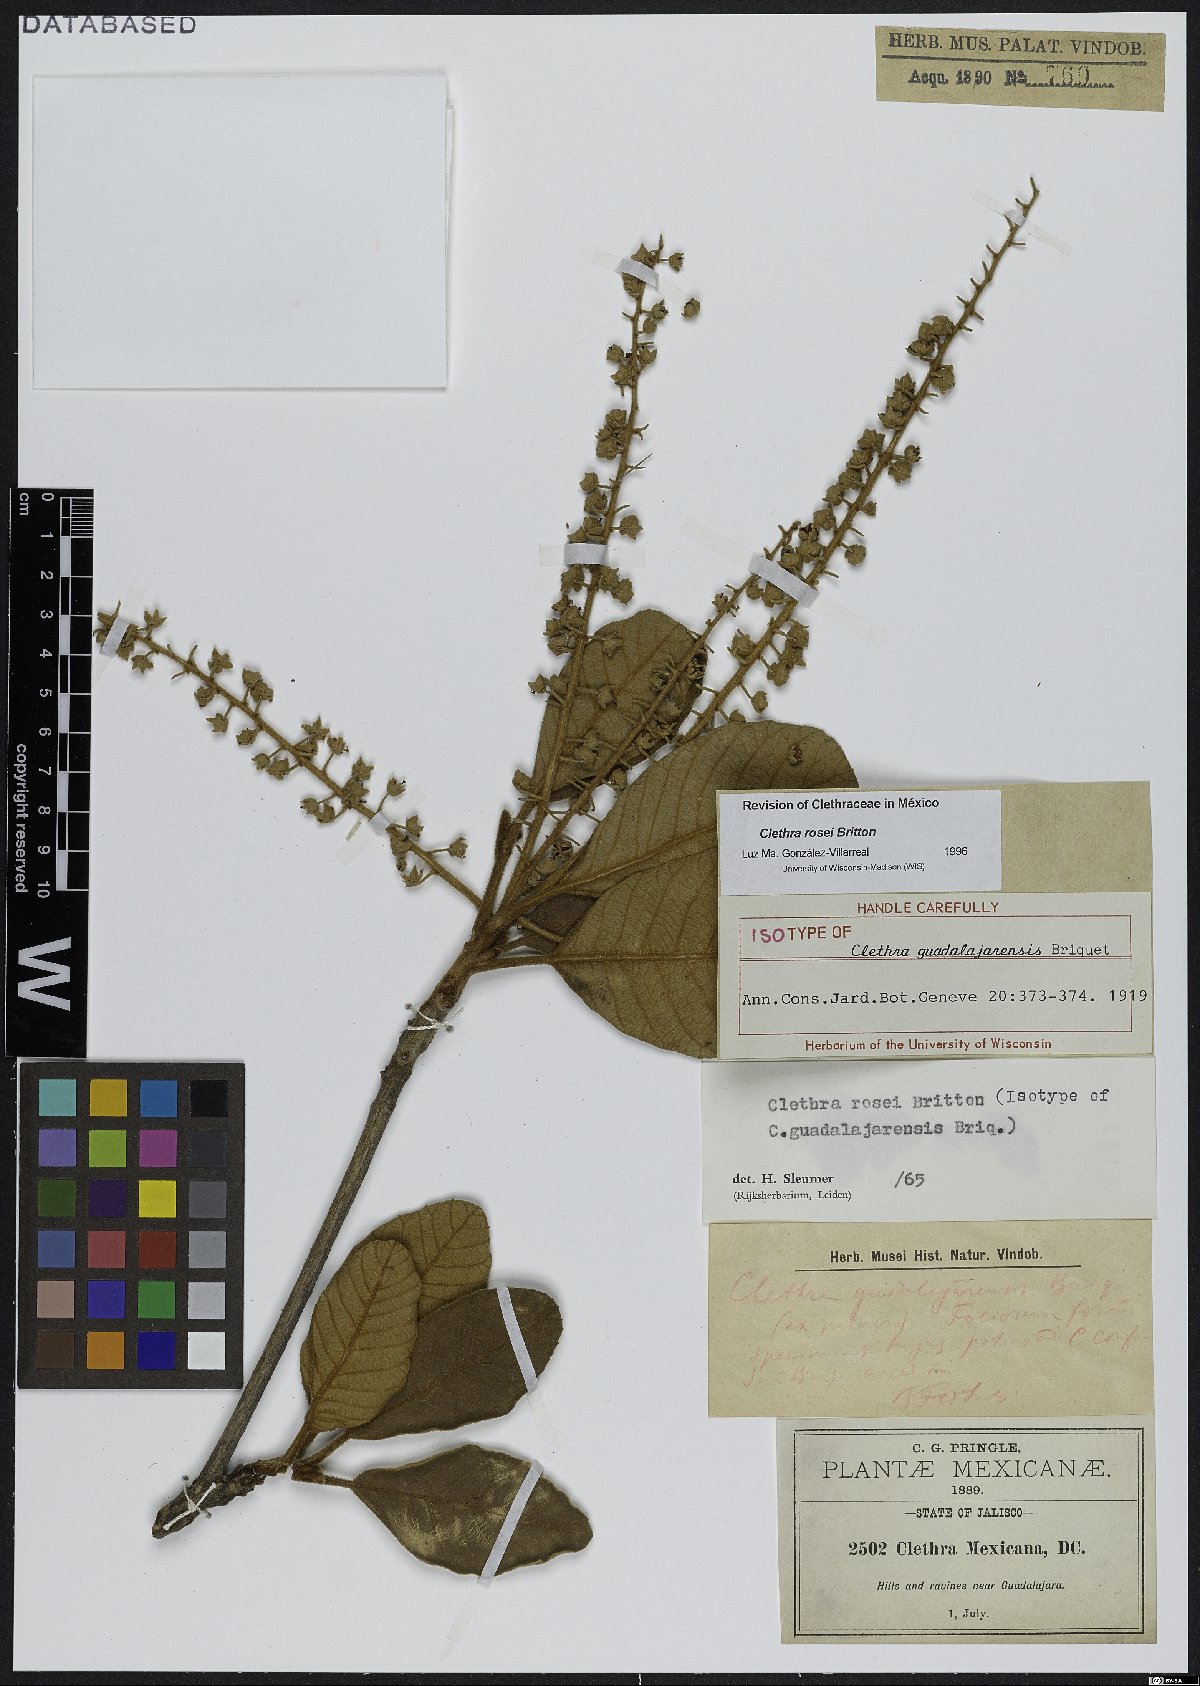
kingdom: Plantae
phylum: Tracheophyta
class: Magnoliopsida
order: Ericales
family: Clethraceae
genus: Clethra
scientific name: Clethra rosei
